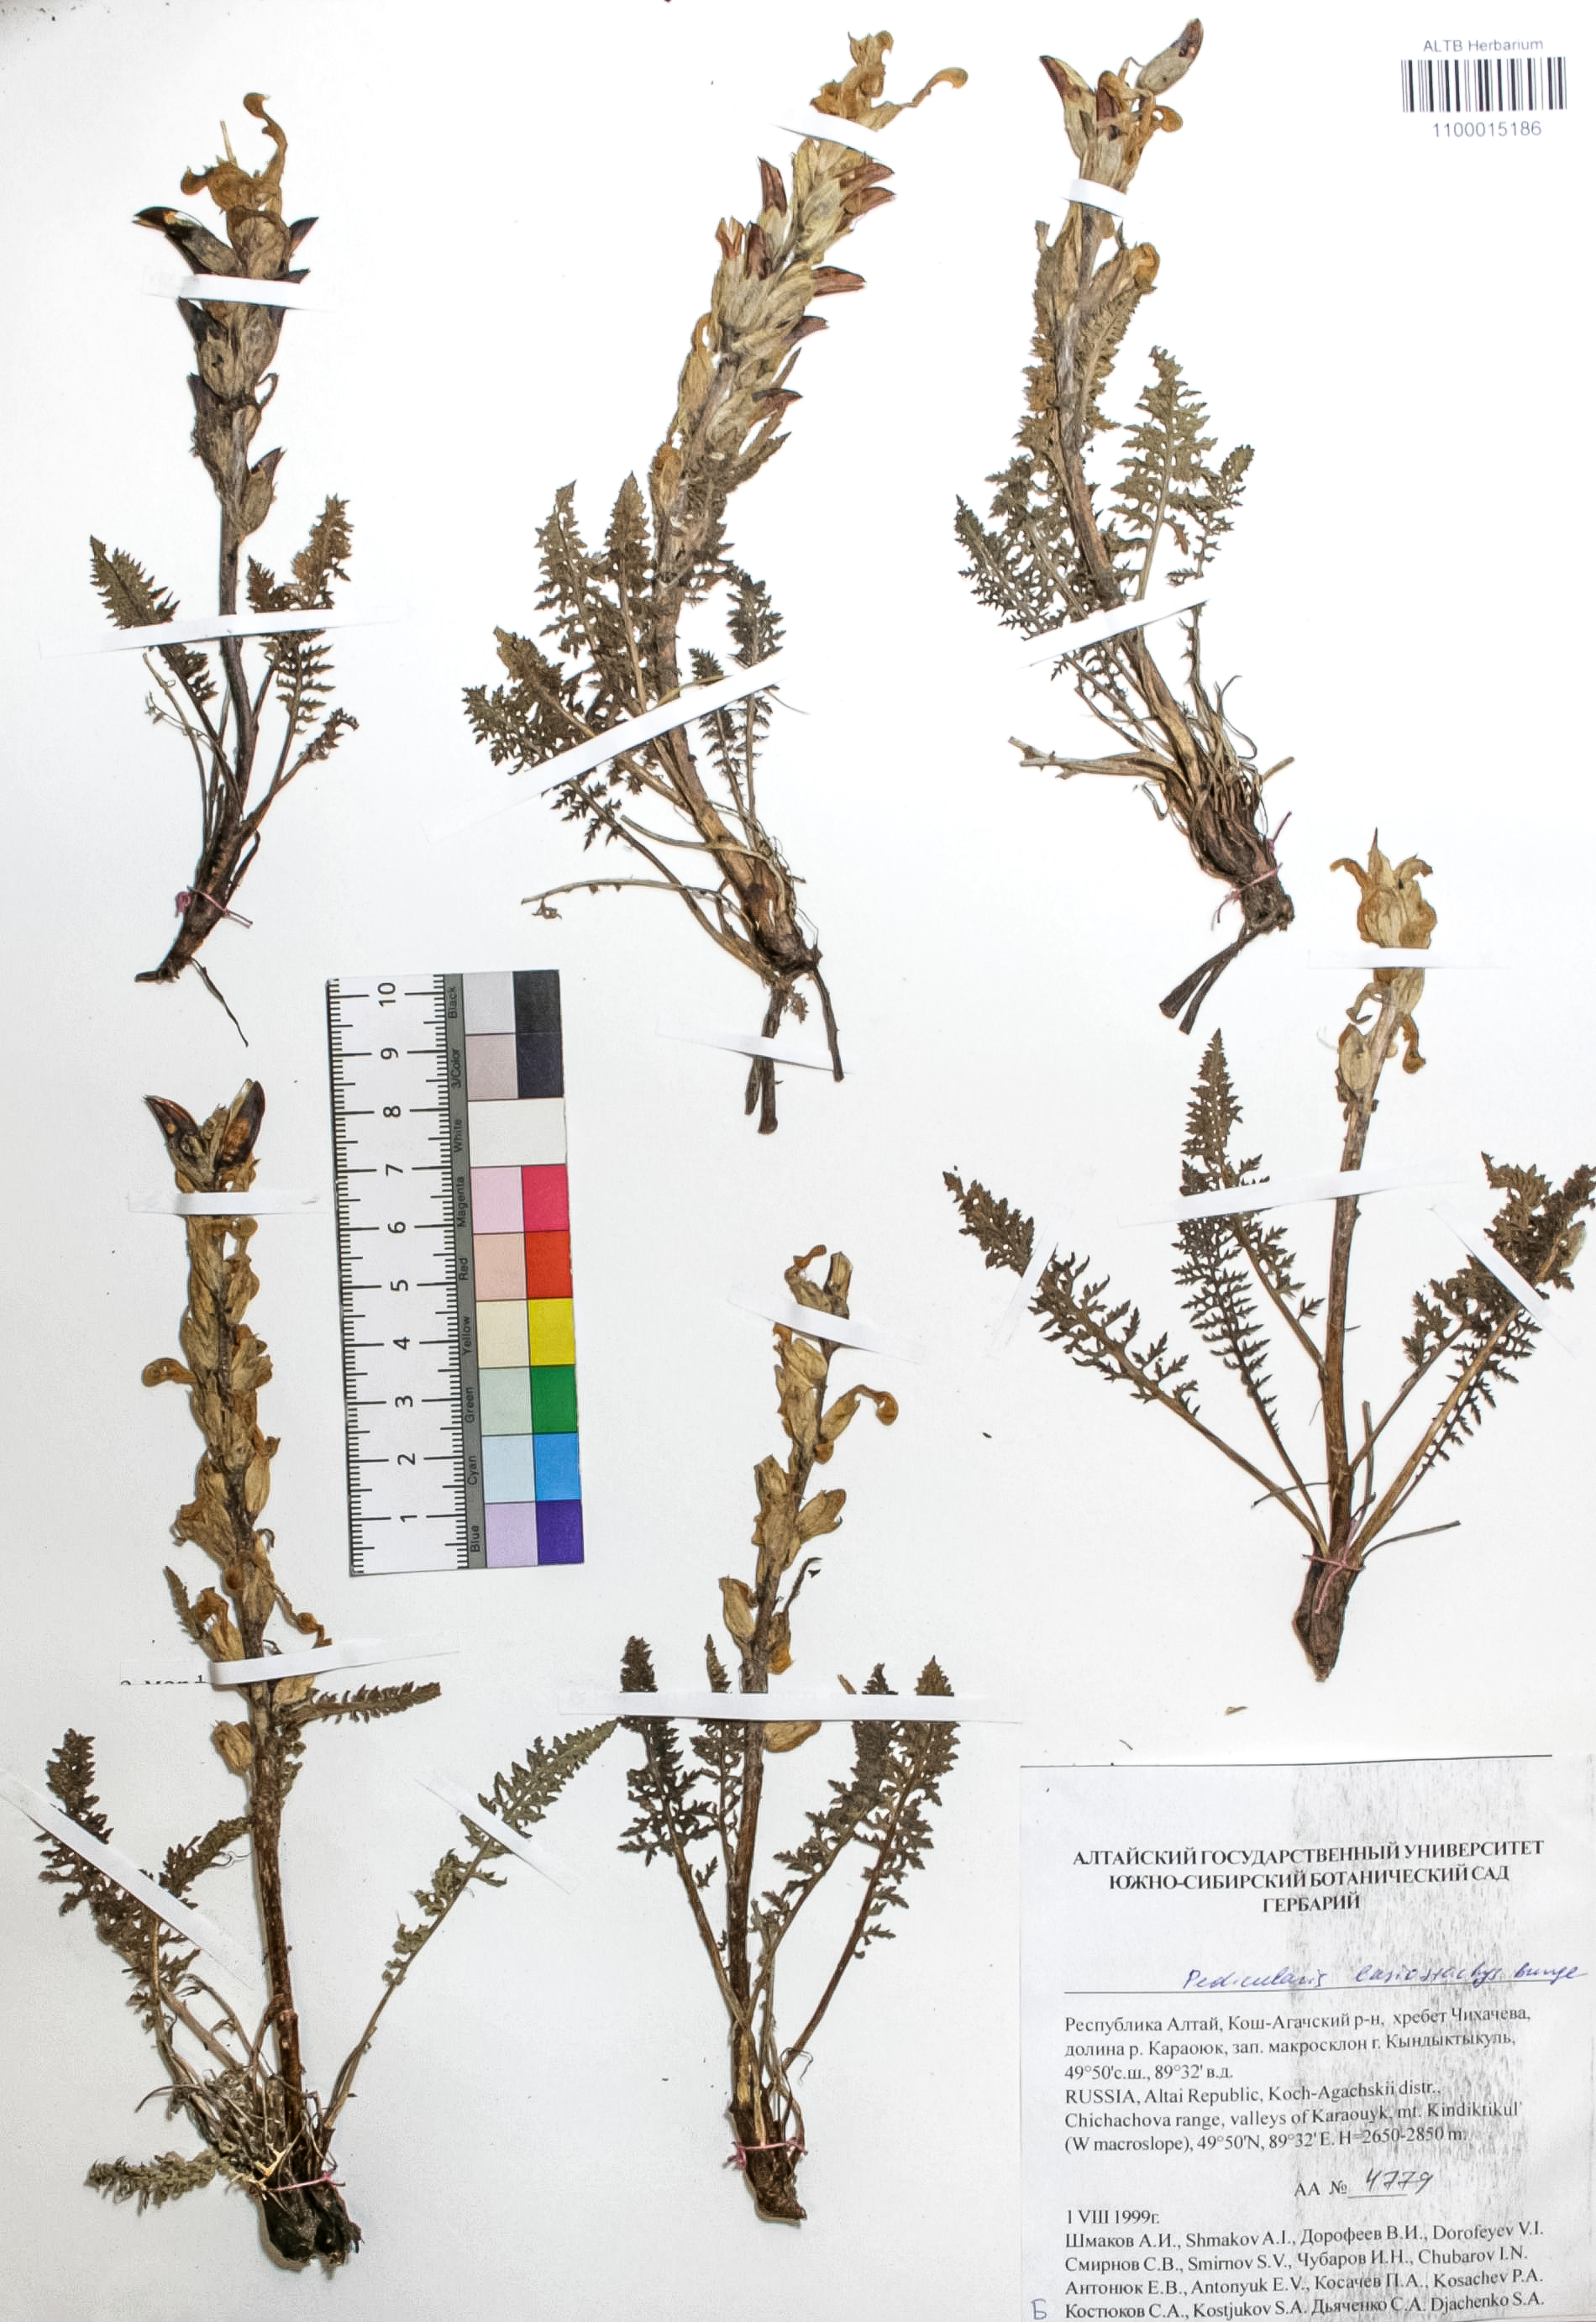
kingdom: Plantae
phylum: Tracheophyta
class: Magnoliopsida
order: Lamiales
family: Orobanchaceae
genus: Pedicularis
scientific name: Pedicularis lasiostachys
